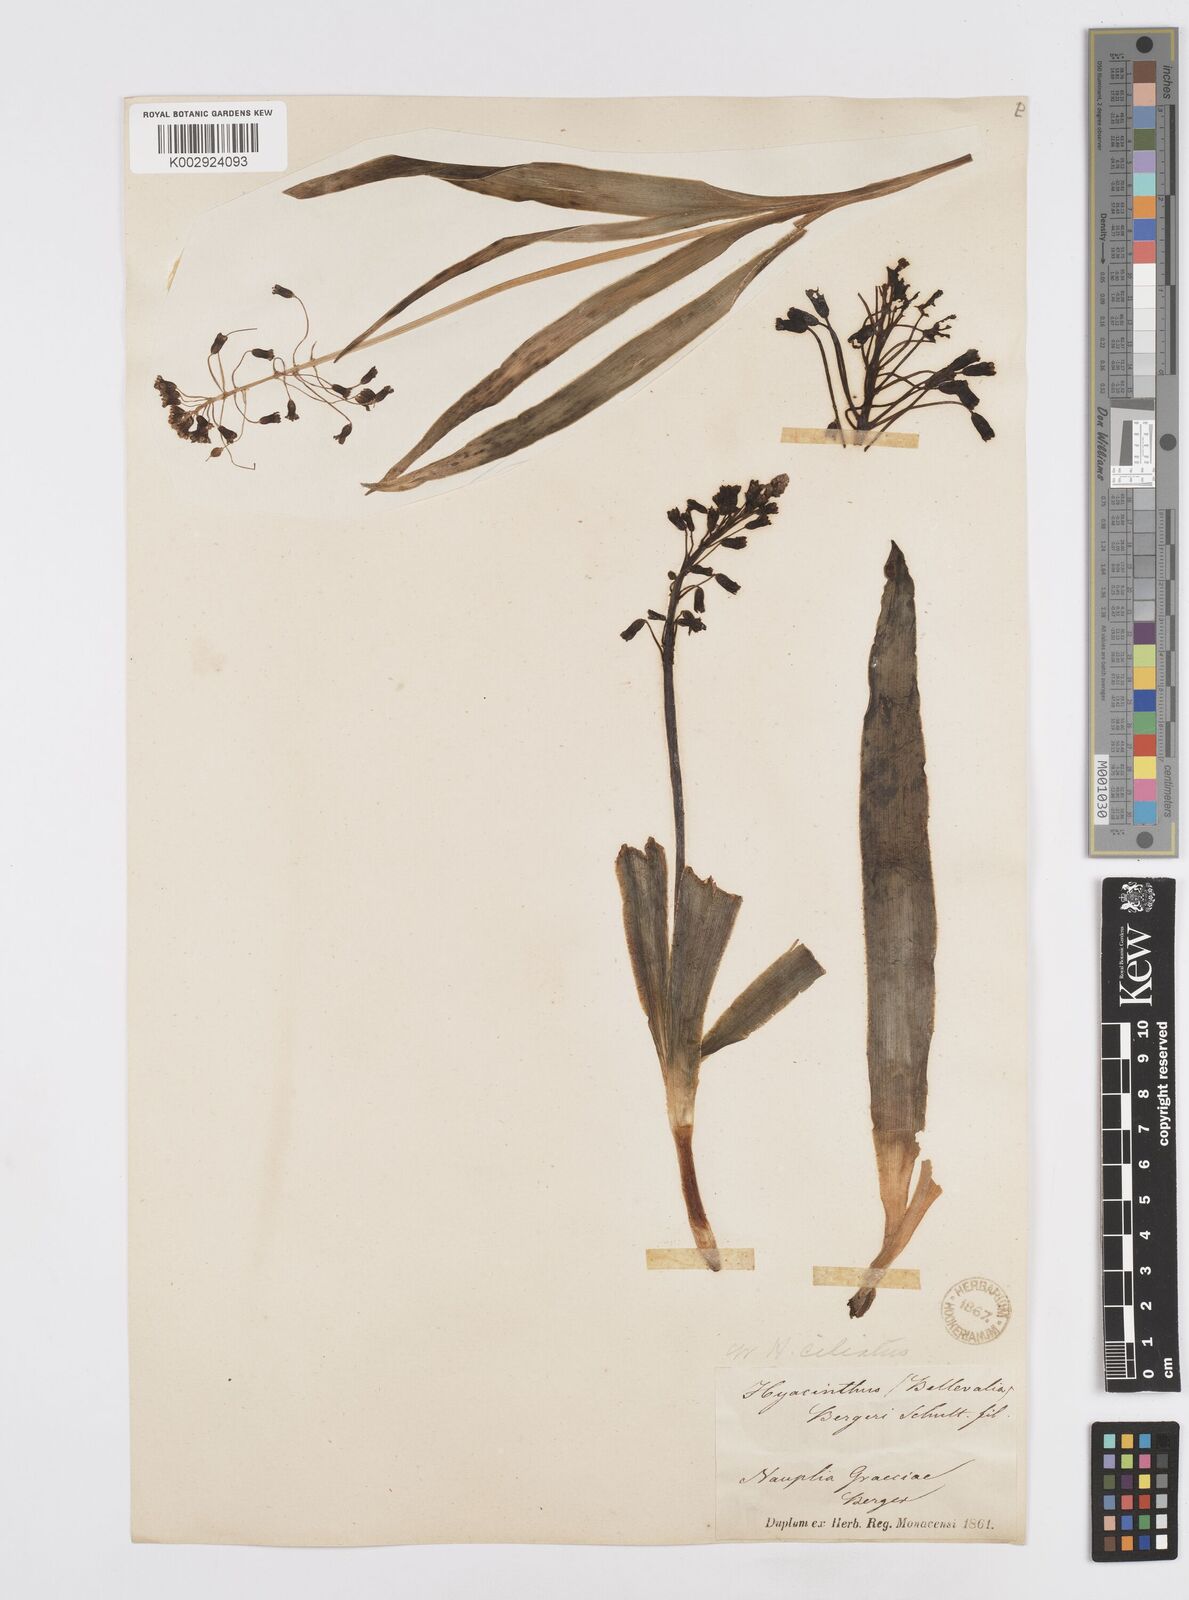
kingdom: Plantae
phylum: Tracheophyta
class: Liliopsida
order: Asparagales
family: Asparagaceae
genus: Bellevalia
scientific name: Bellevalia ciliata
